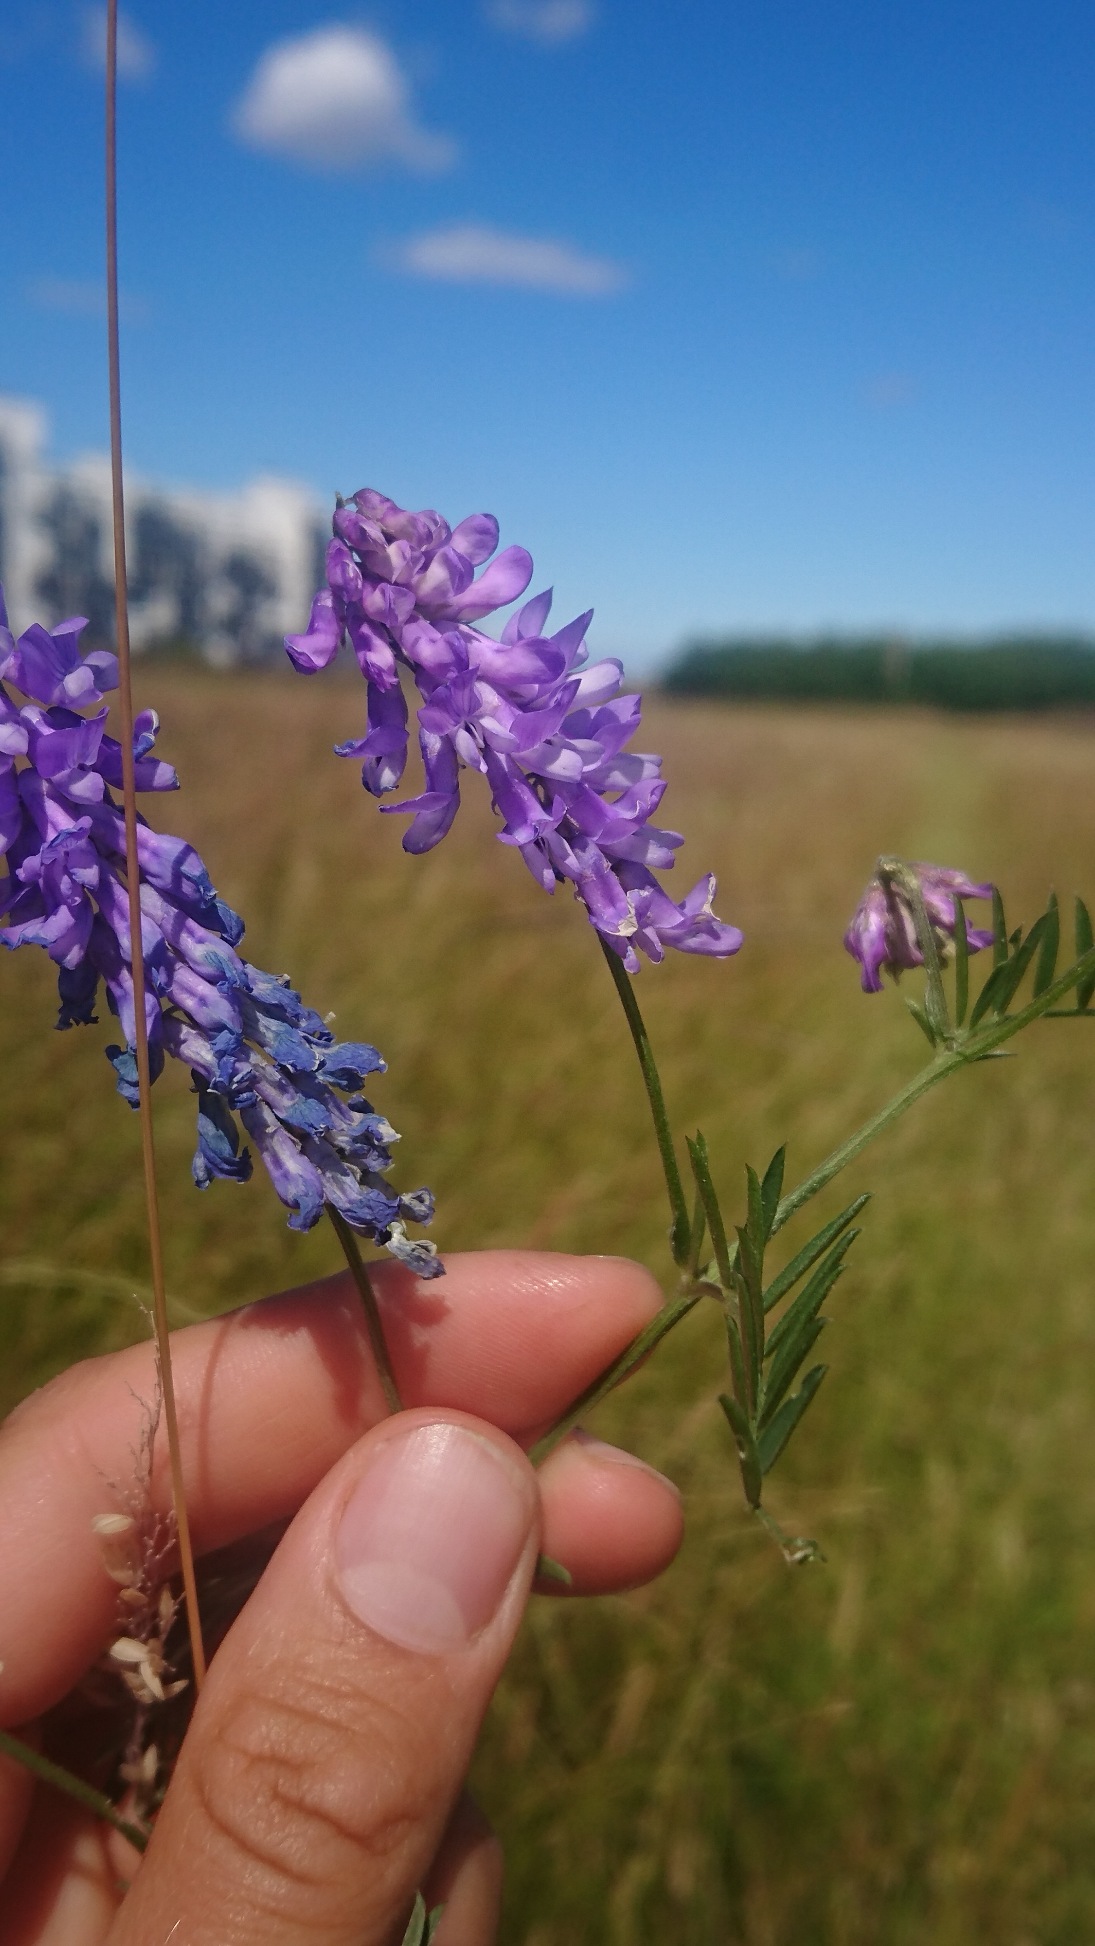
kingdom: Plantae
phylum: Tracheophyta
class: Magnoliopsida
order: Fabales
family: Fabaceae
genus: Vicia
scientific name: Vicia cracca
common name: Muse-vikke
